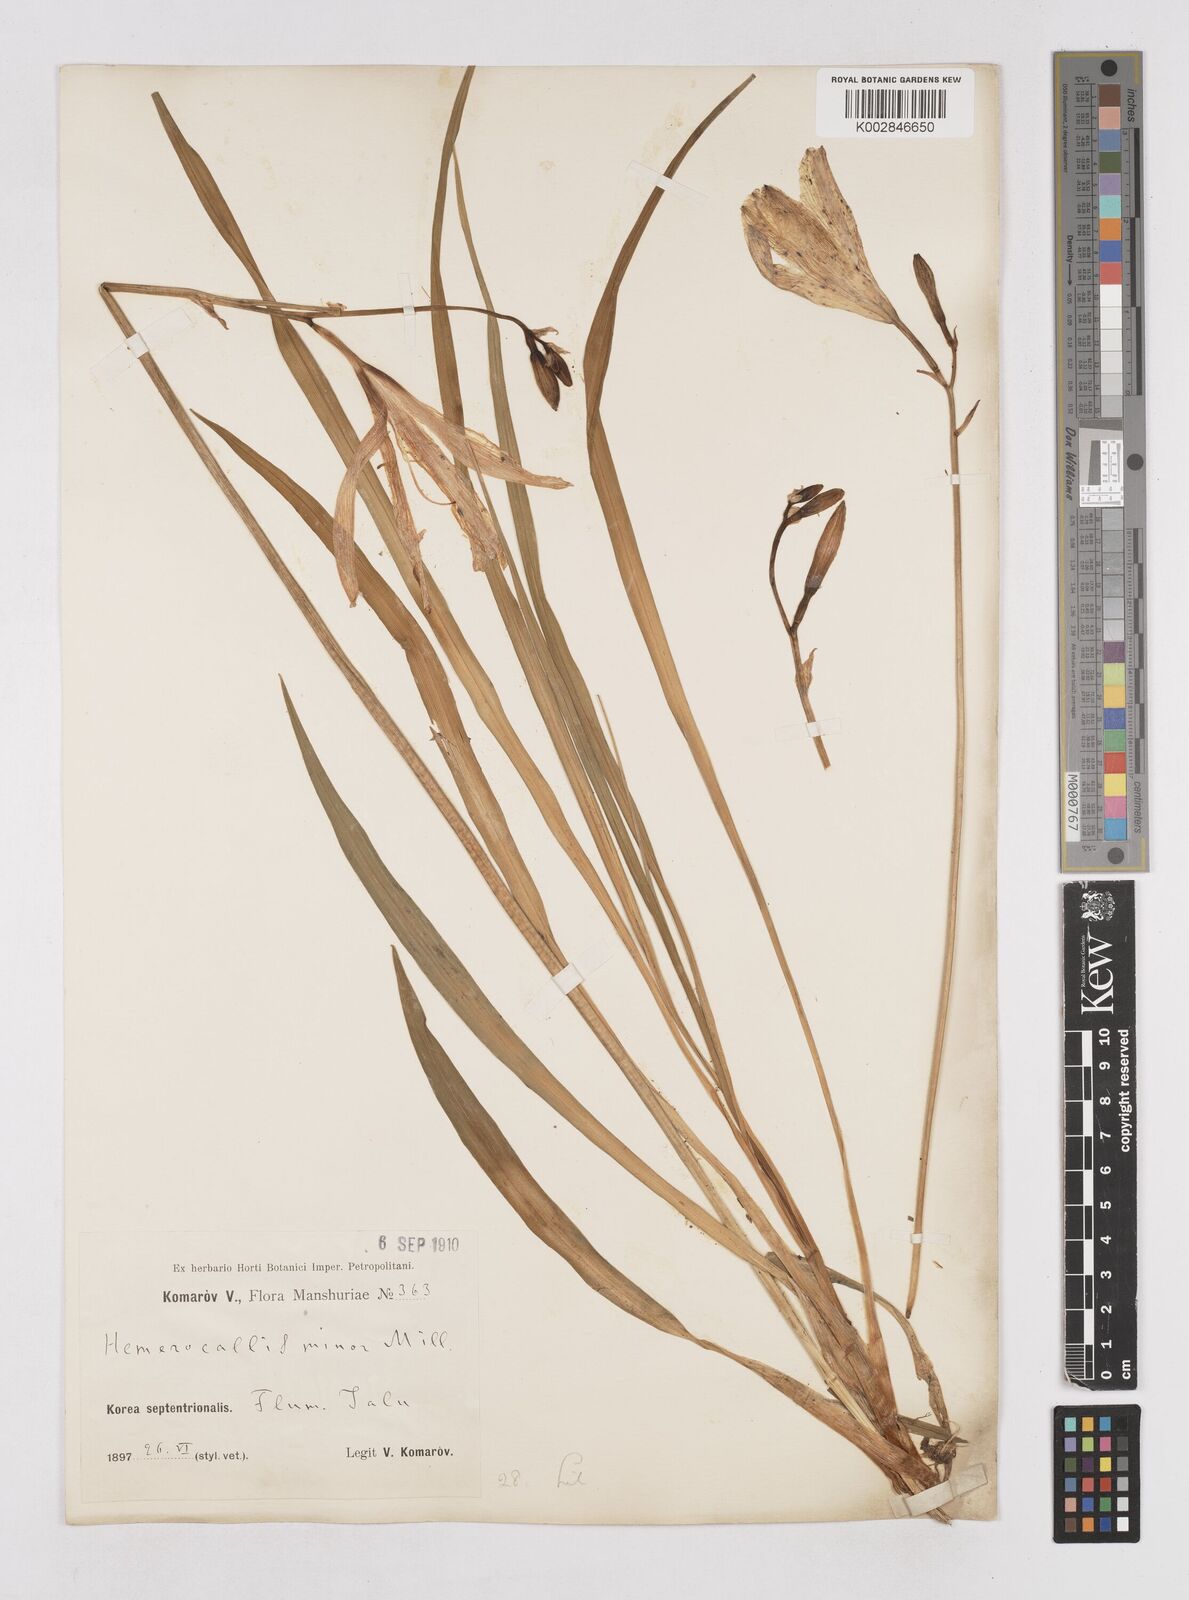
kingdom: Plantae
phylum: Tracheophyta
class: Liliopsida
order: Asparagales
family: Asphodelaceae
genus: Hemerocallis
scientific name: Hemerocallis minor
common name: Small daylily
